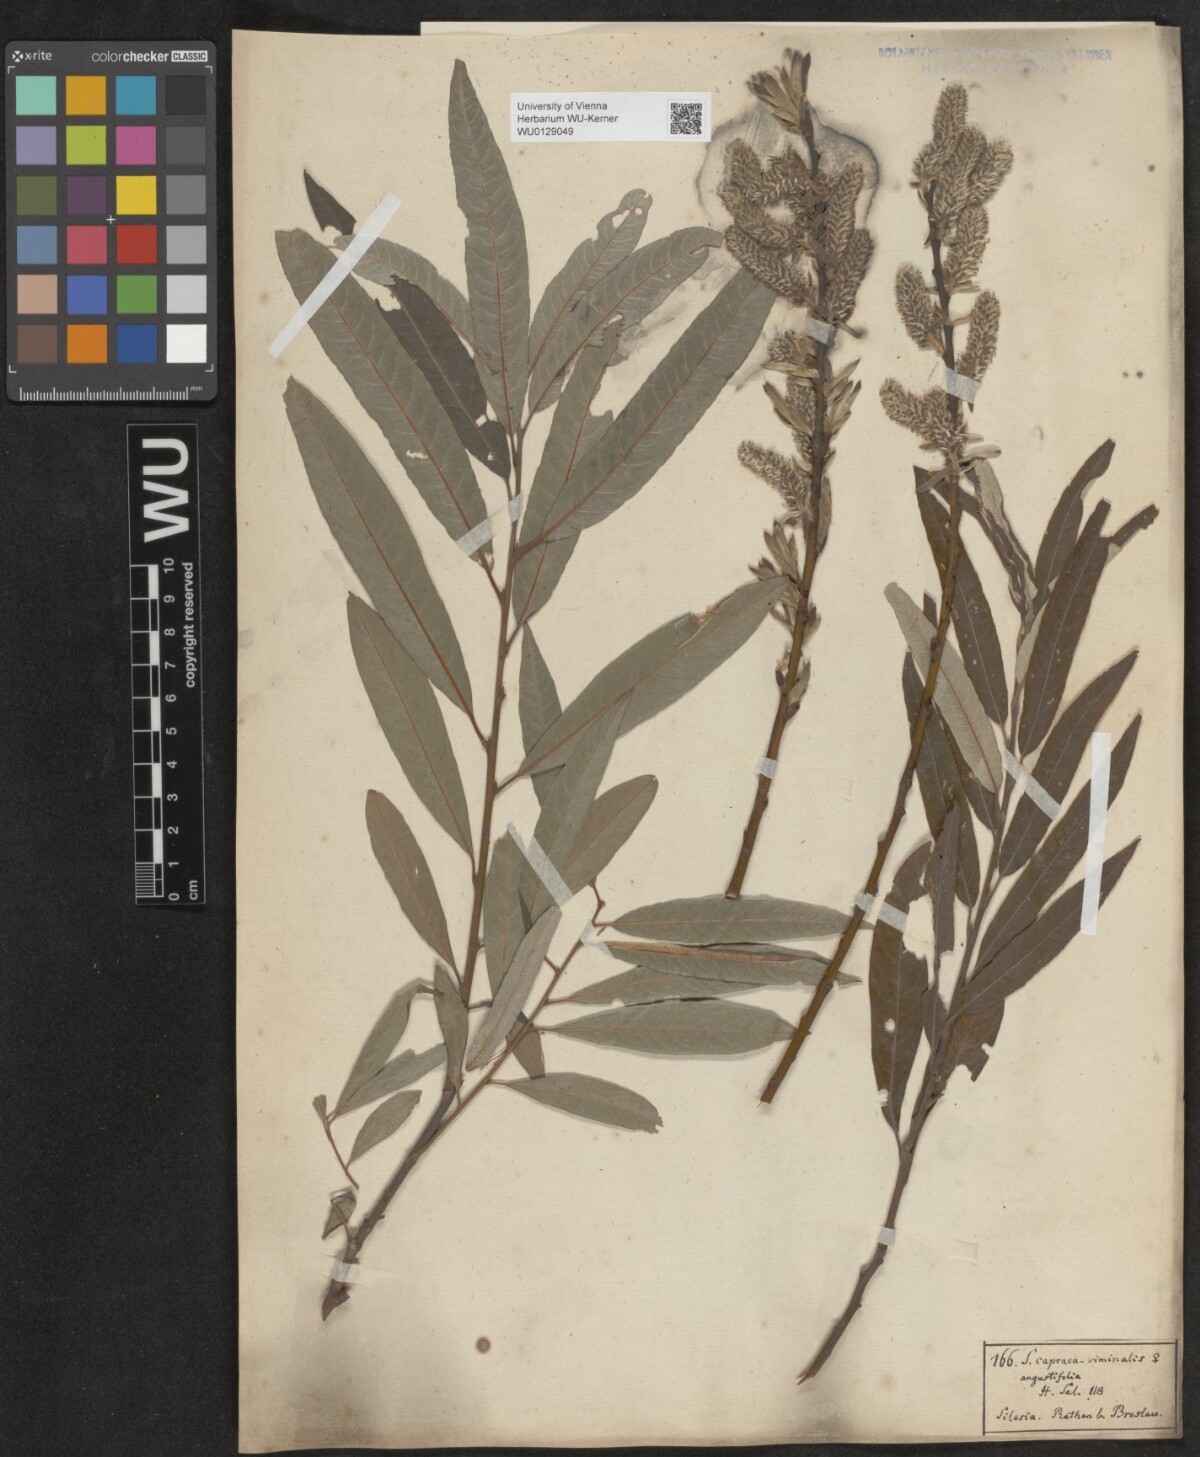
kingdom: Plantae
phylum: Tracheophyta
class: Magnoliopsida
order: Malpighiales
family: Salicaceae
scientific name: Salicaceae
